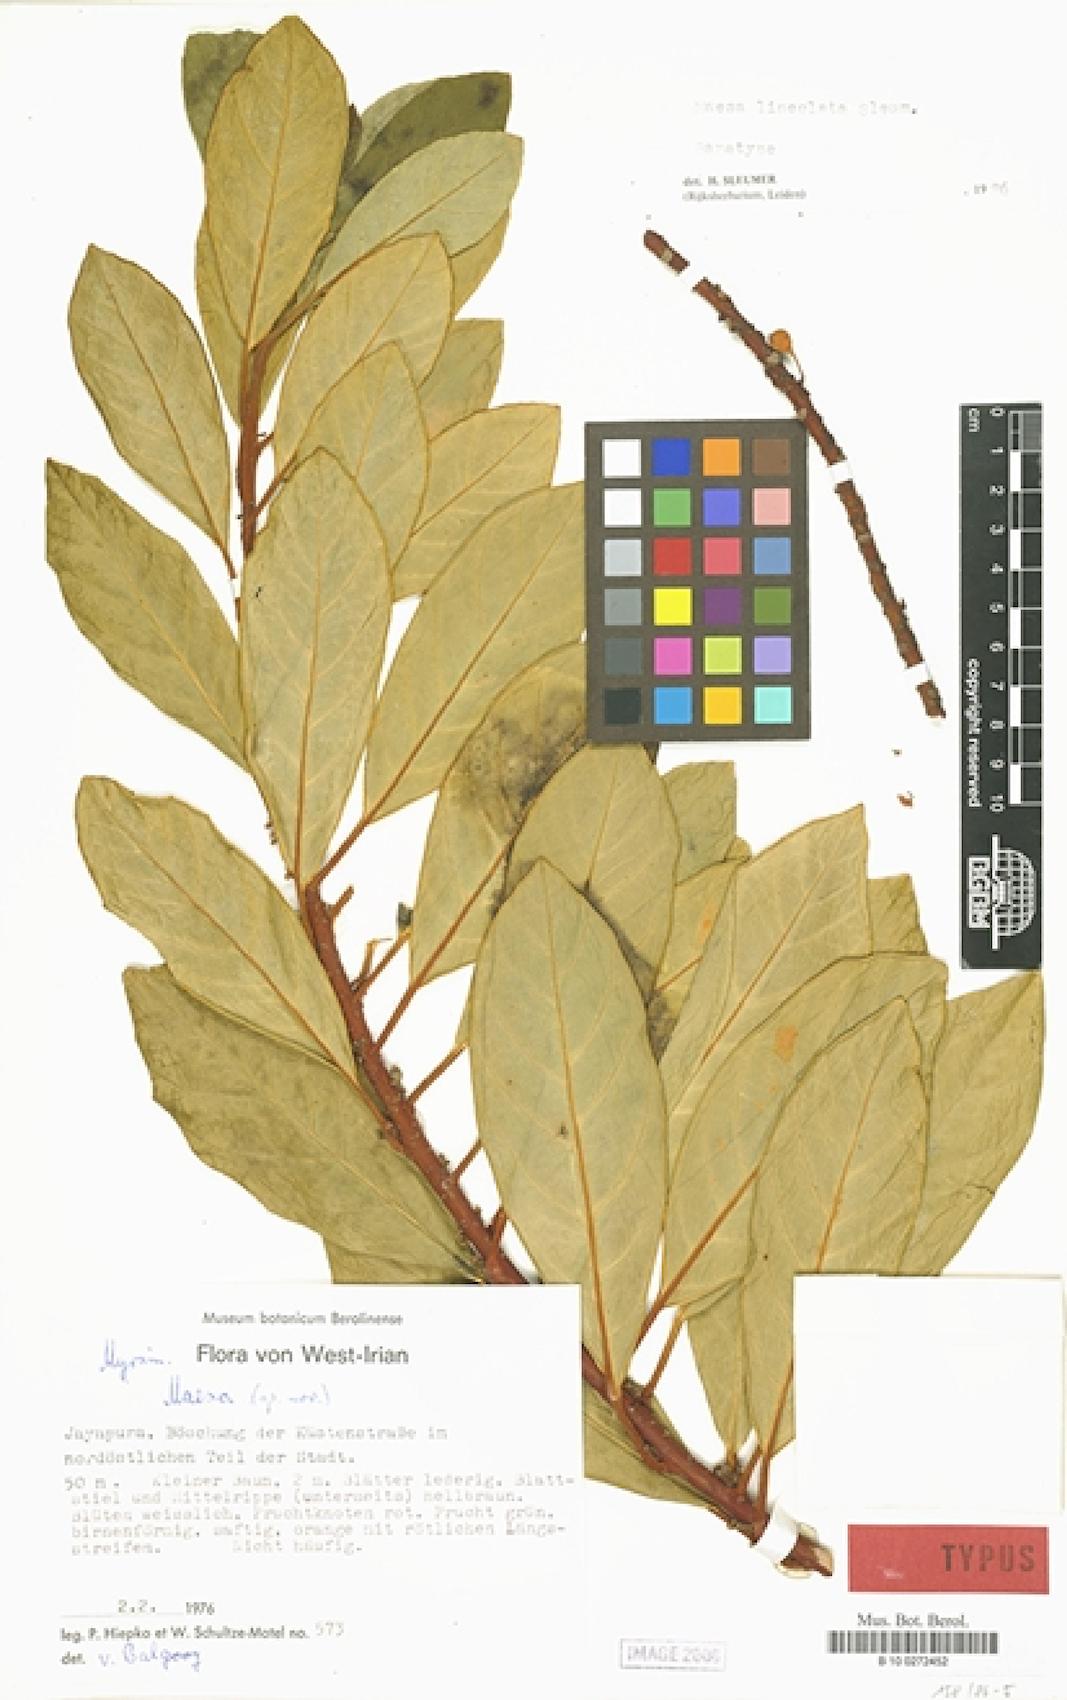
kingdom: Plantae
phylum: Tracheophyta
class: Magnoliopsida
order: Ericales
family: Primulaceae
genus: Maesa
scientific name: Maesa lineolata
